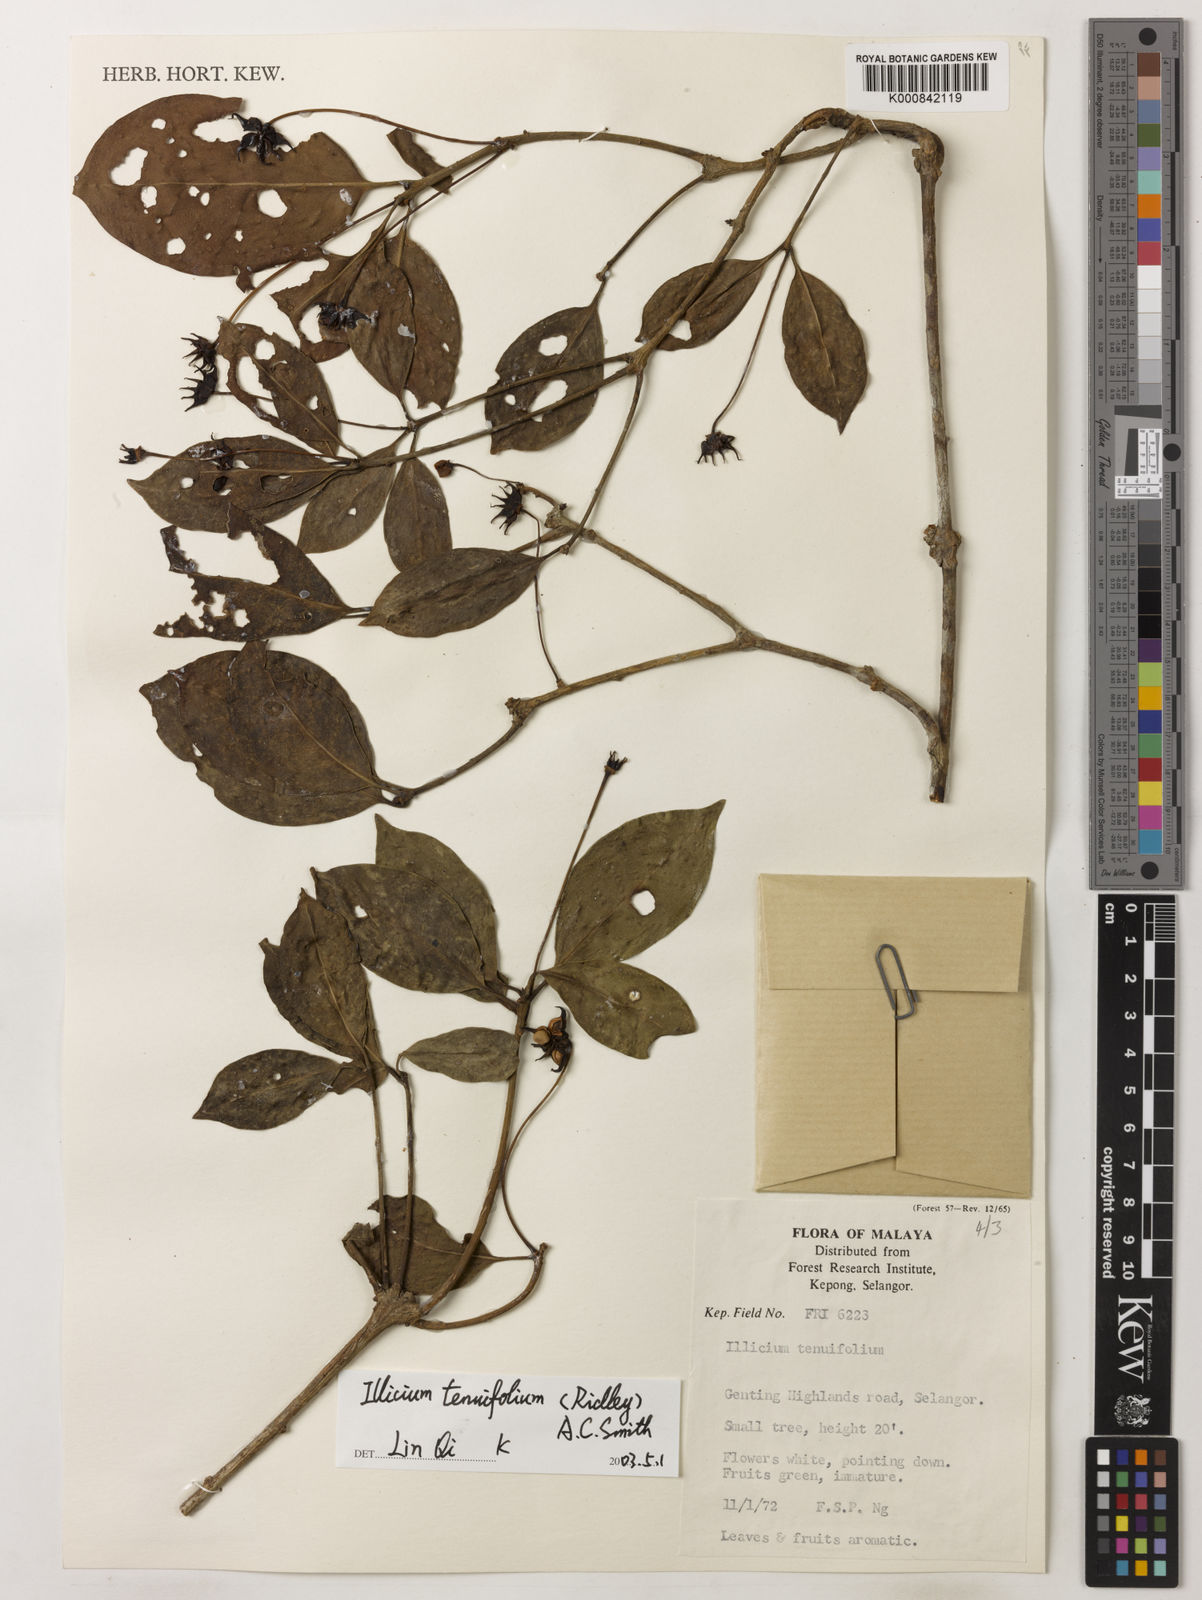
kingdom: Plantae
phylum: Tracheophyta
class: Magnoliopsida
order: Austrobaileyales
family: Schisandraceae
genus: Illicium
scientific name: Illicium tenuifolium
